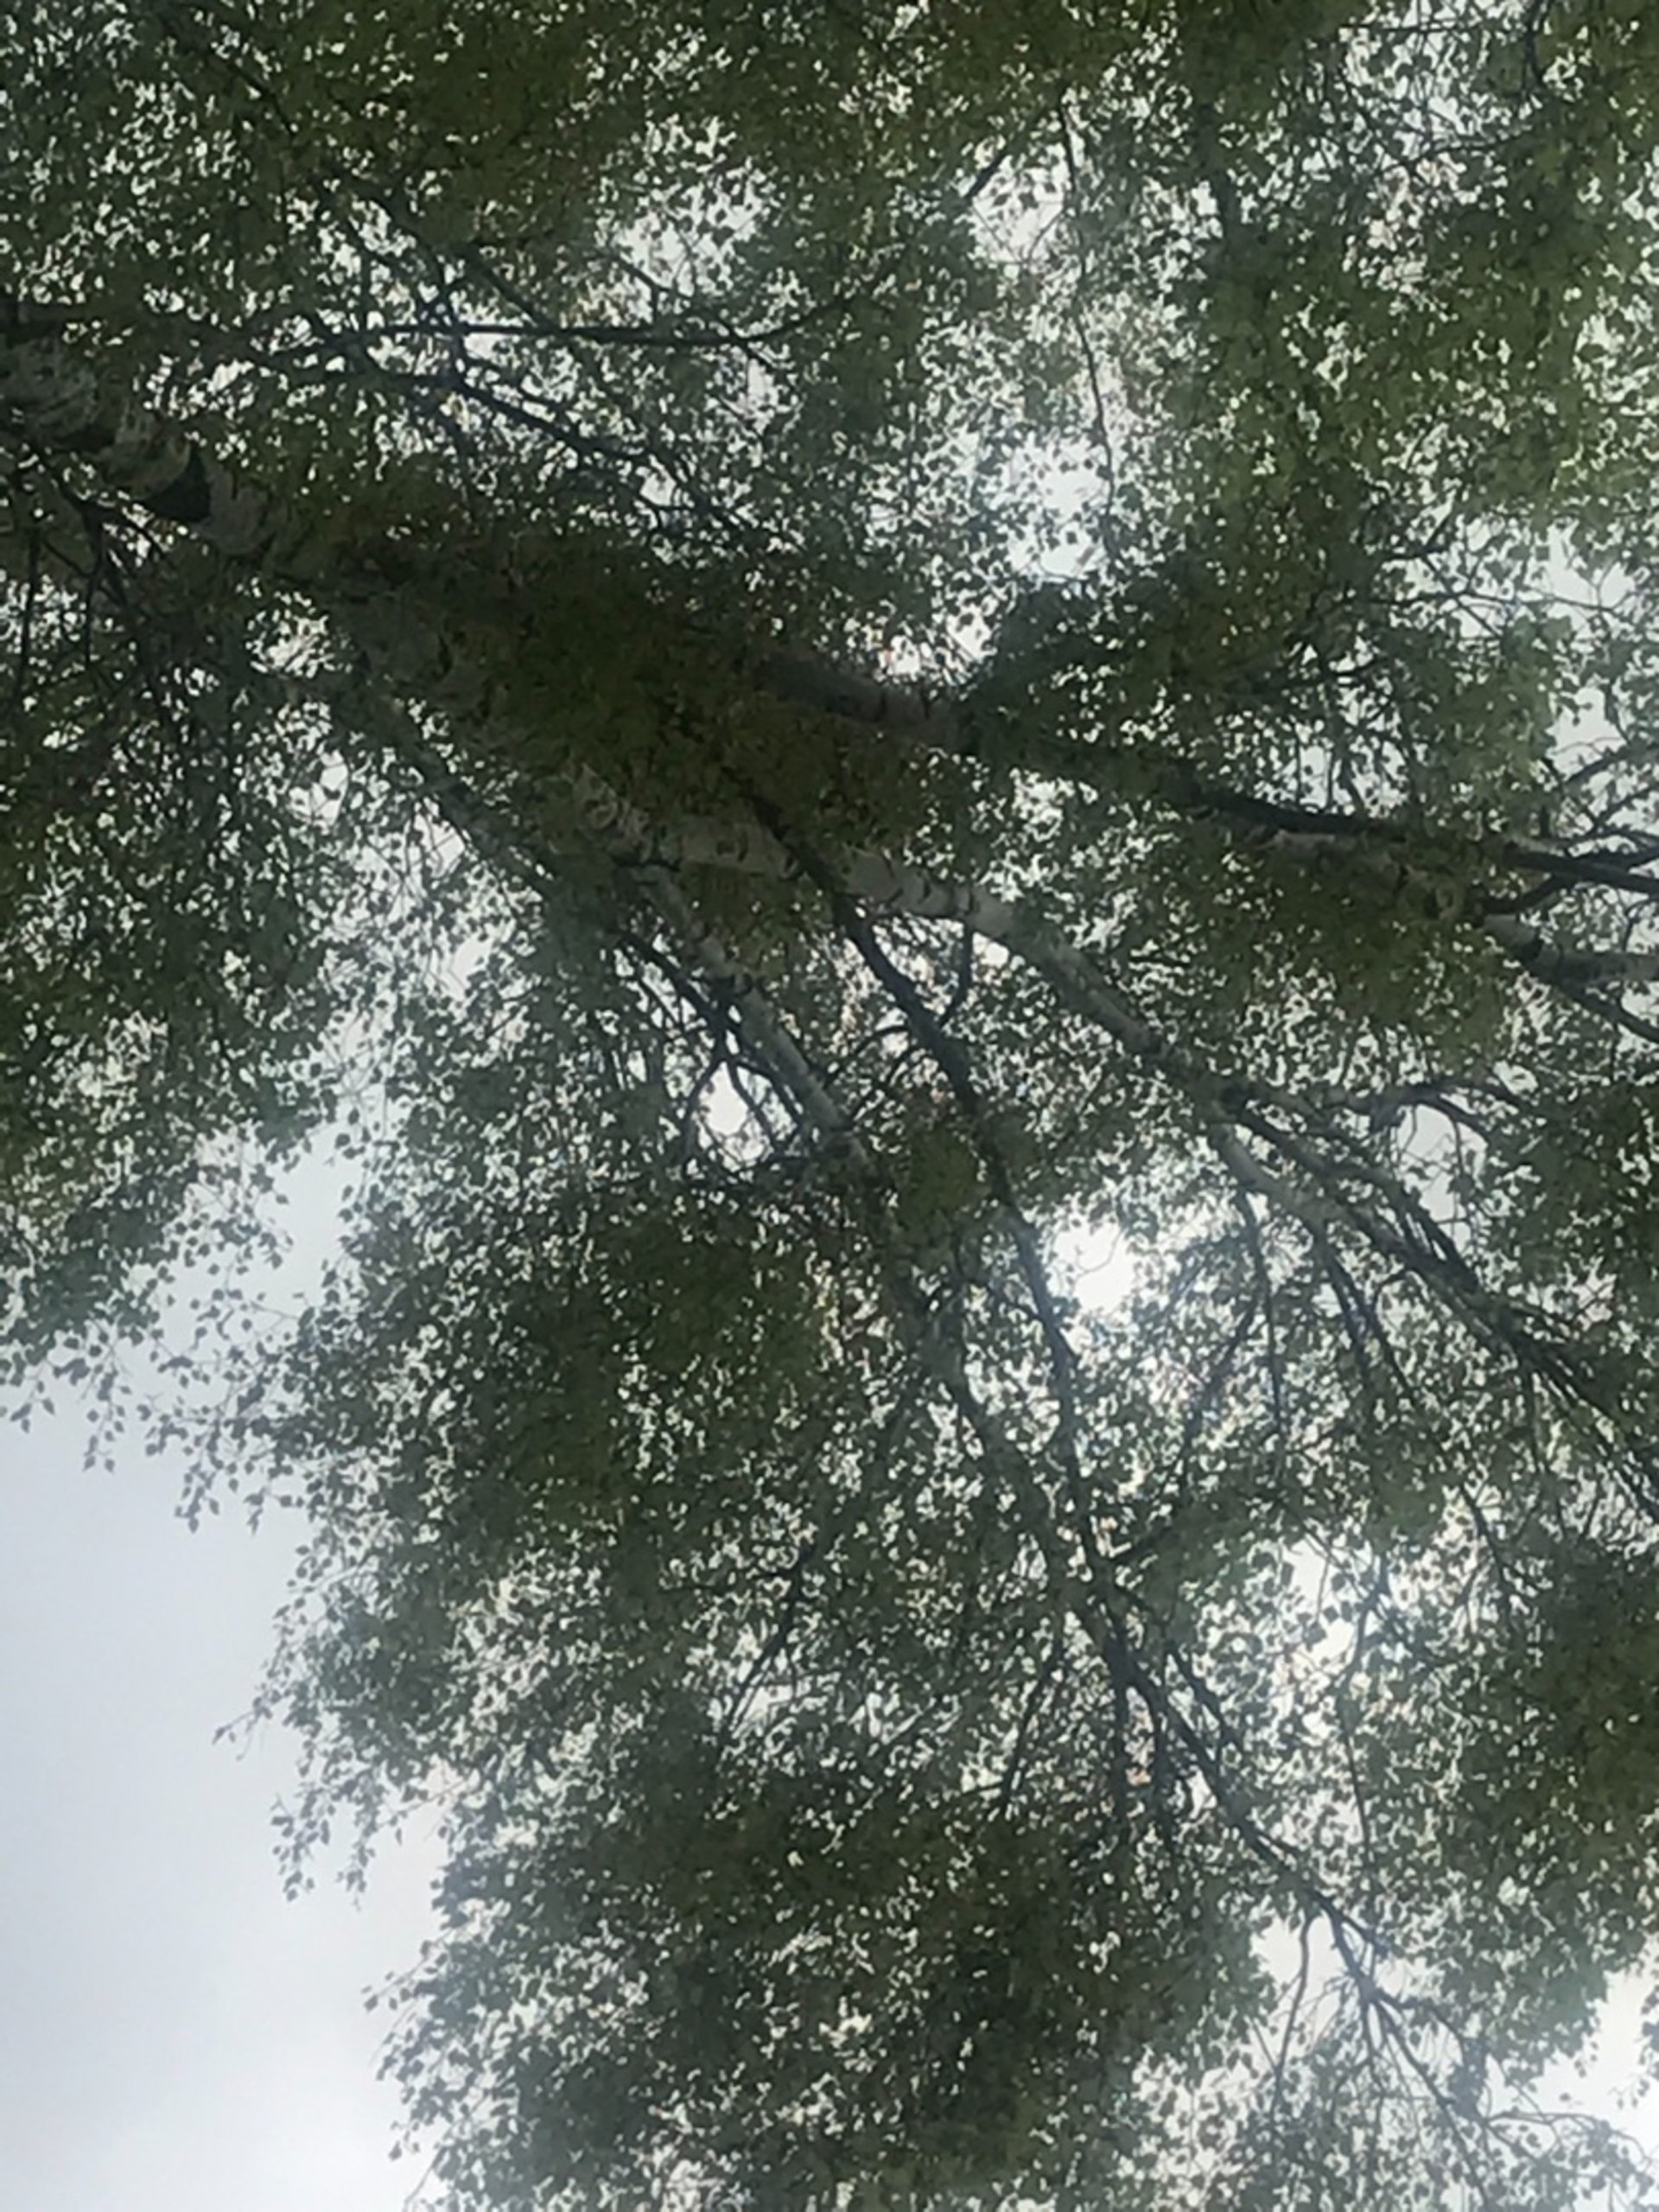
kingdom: Animalia
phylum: Chordata
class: Aves
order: Passeriformes
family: Corvidae
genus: Corvus
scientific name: Corvus frugilegus
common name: Råge
